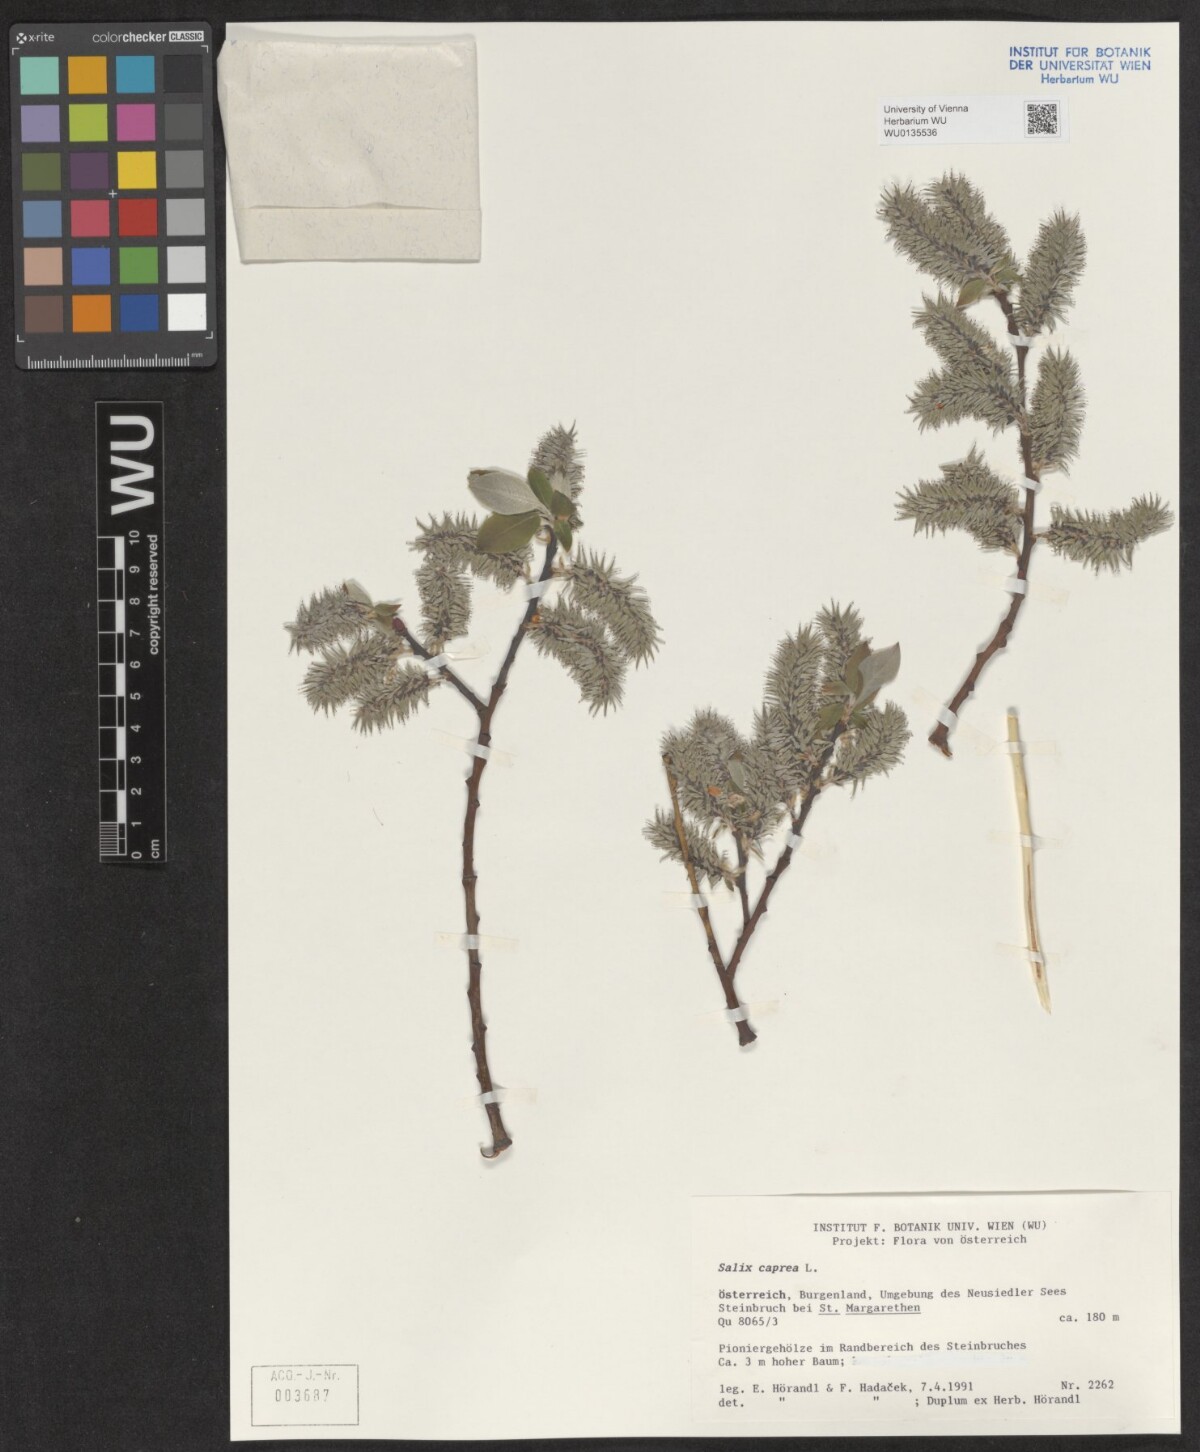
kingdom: Plantae
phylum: Tracheophyta
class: Magnoliopsida
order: Malpighiales
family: Salicaceae
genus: Salix
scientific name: Salix caprea
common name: Goat willow
